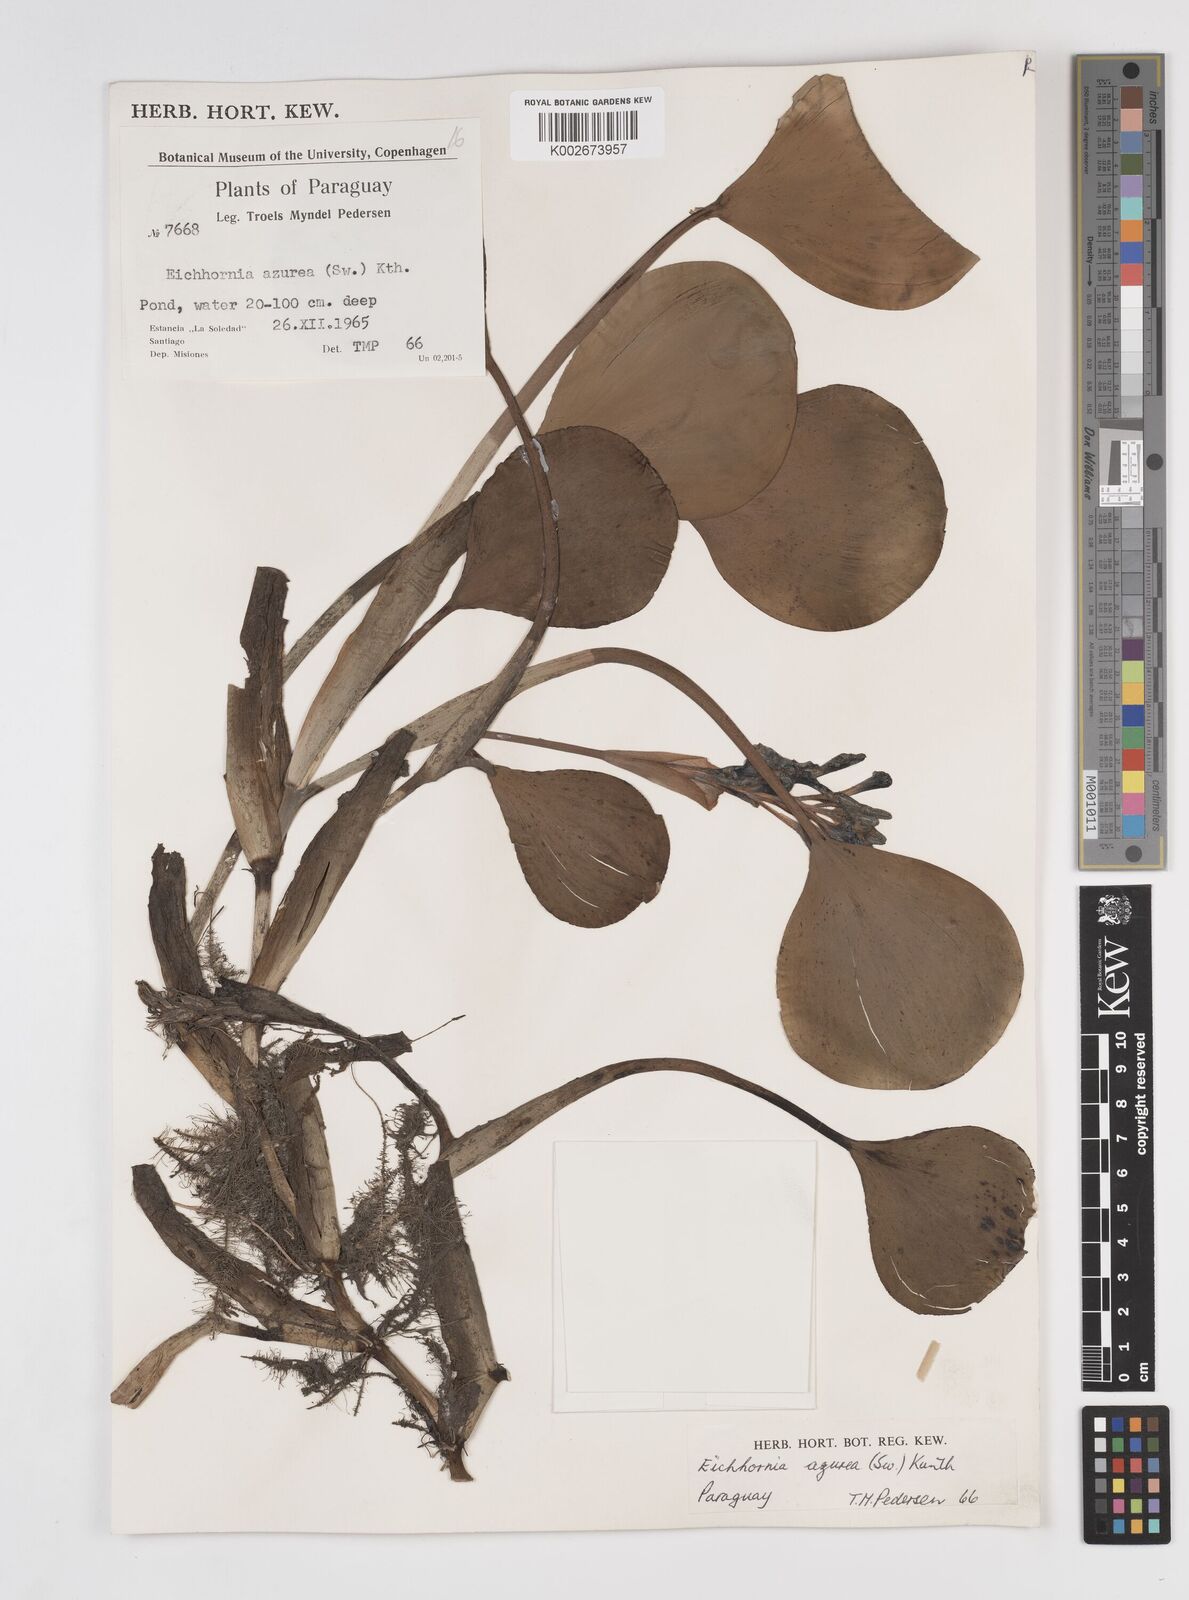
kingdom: Plantae
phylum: Tracheophyta
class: Liliopsida
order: Commelinales
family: Pontederiaceae
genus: Pontederia
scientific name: Pontederia azurea
